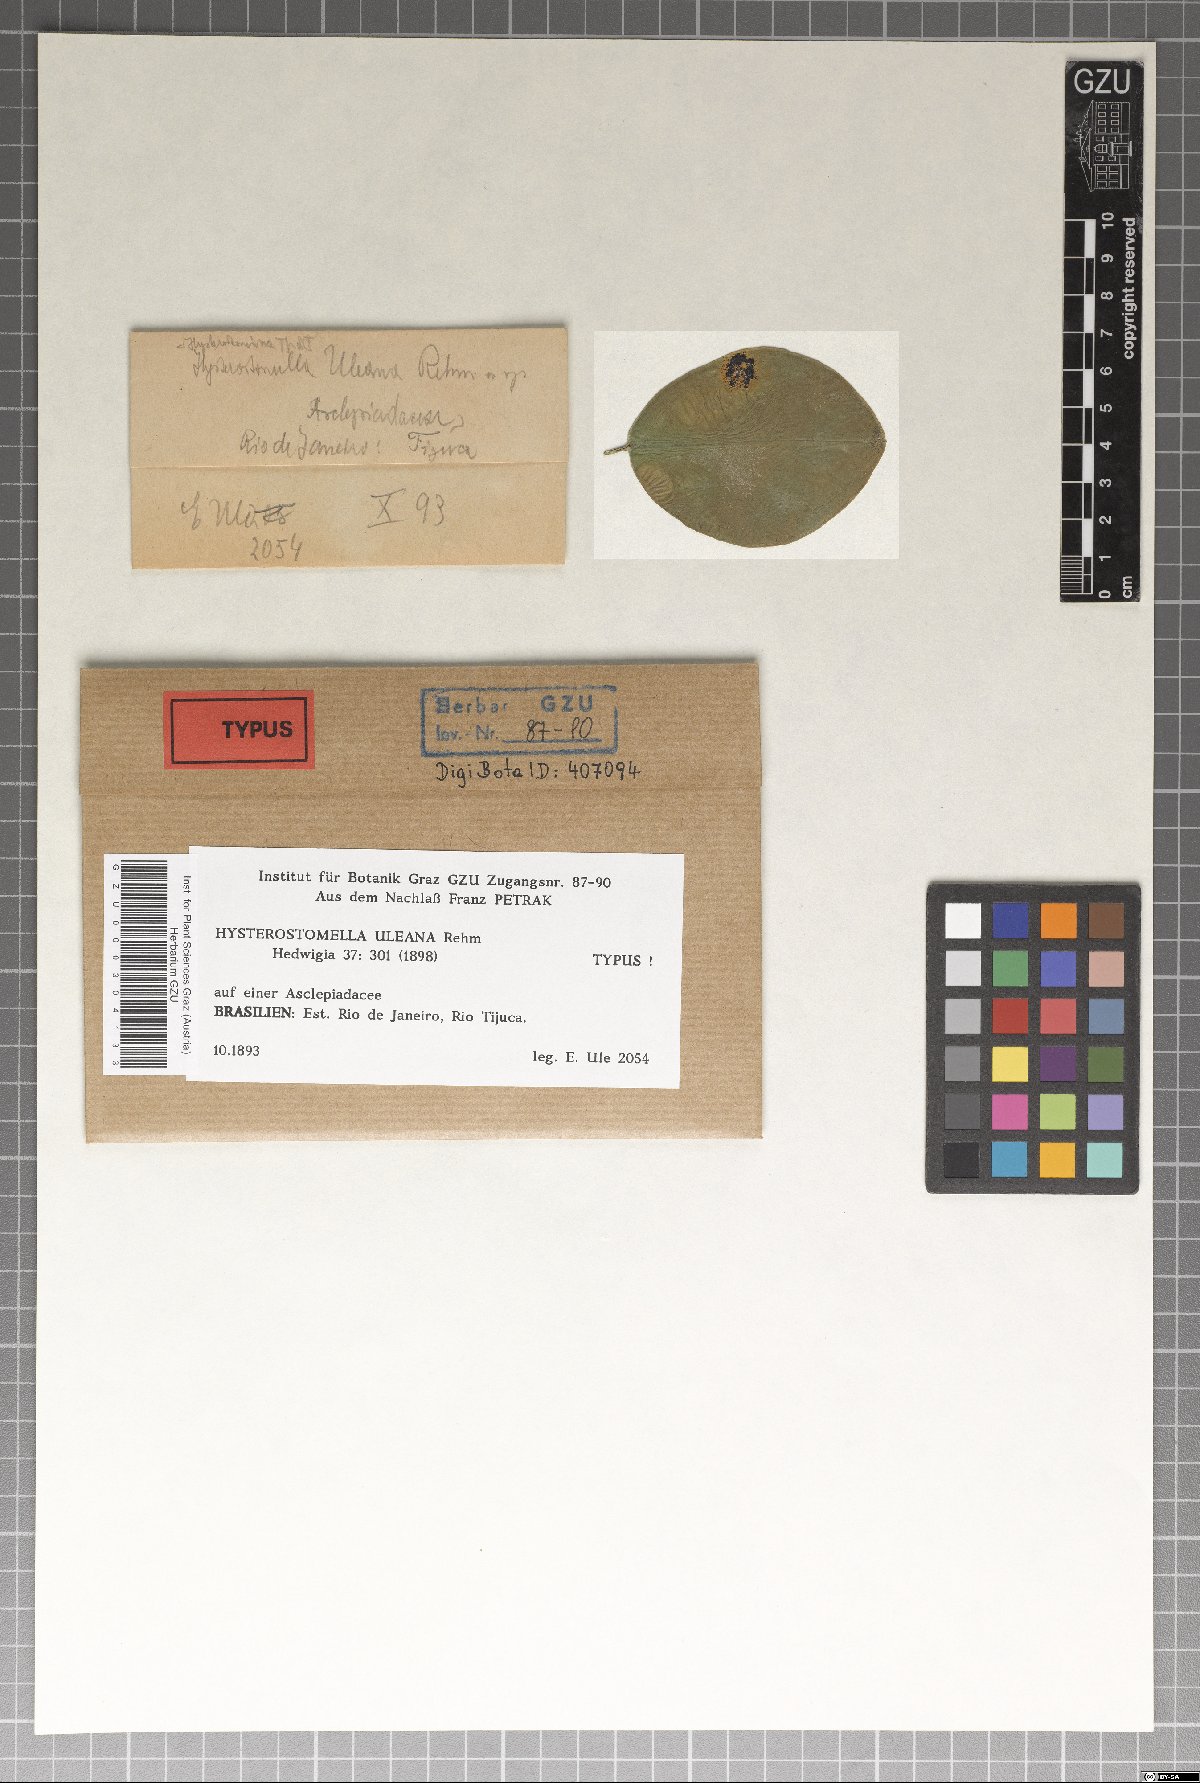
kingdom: Fungi
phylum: Ascomycota
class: Dothideomycetes
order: Asterinales
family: Parmulariaceae
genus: Hysterostomella
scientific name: Hysterostomella uleana
